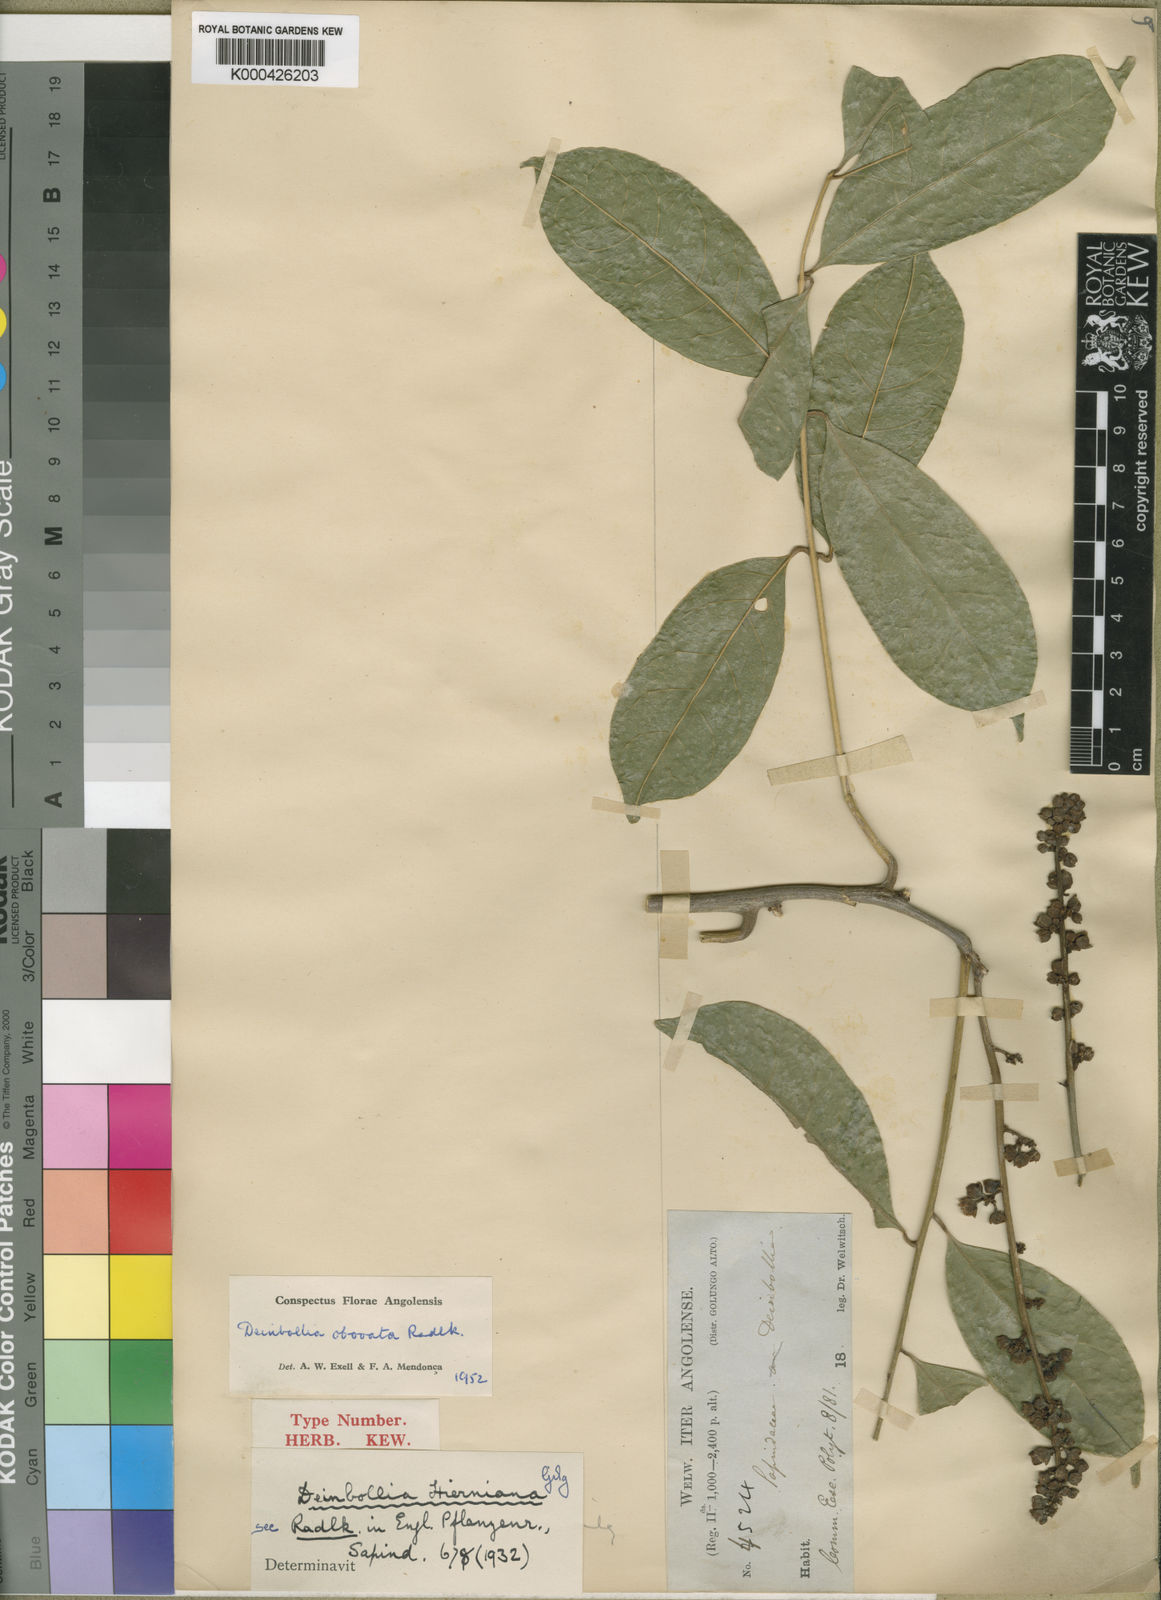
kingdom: Plantae
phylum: Tracheophyta
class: Magnoliopsida
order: Sapindales
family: Sapindaceae
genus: Deinbollia
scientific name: Deinbollia laurifolia
